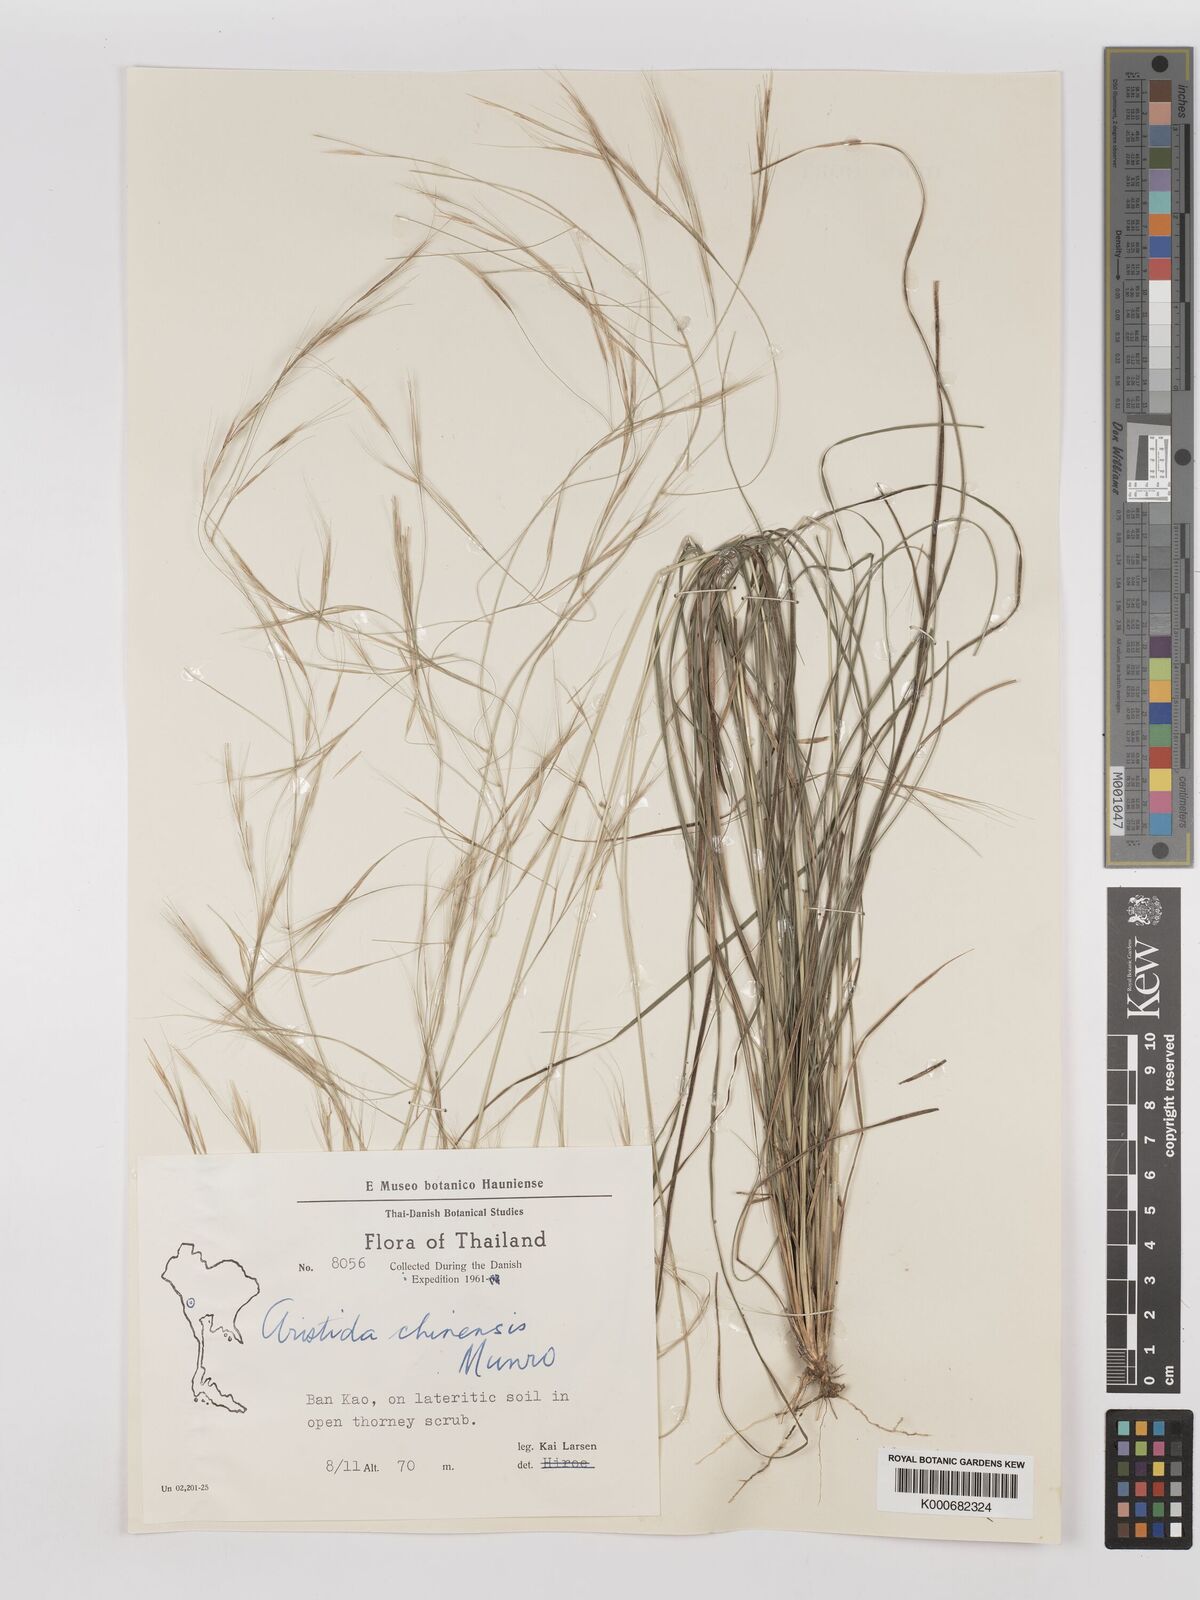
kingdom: Plantae
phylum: Tracheophyta
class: Liliopsida
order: Poales
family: Poaceae
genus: Aristida
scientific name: Aristida chinensis
